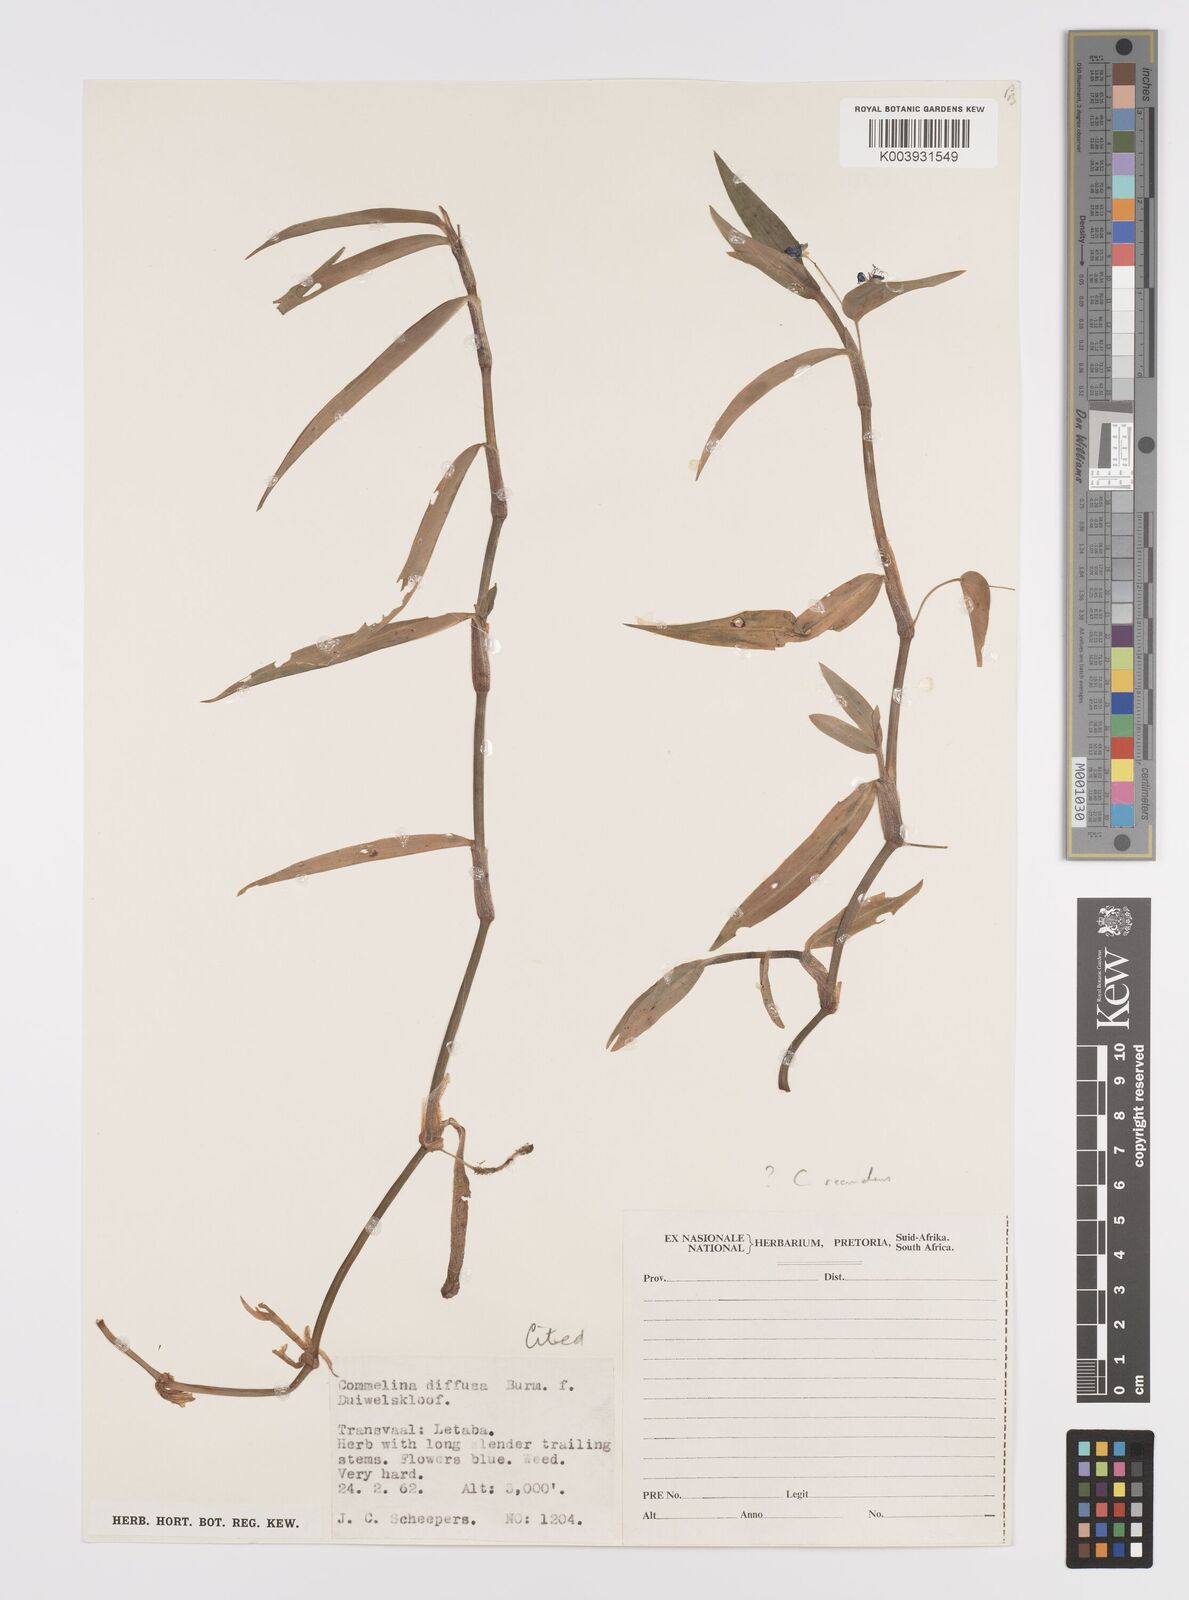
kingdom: Plantae
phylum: Tracheophyta
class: Liliopsida
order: Commelinales
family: Commelinaceae
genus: Commelina
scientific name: Commelina scandens
